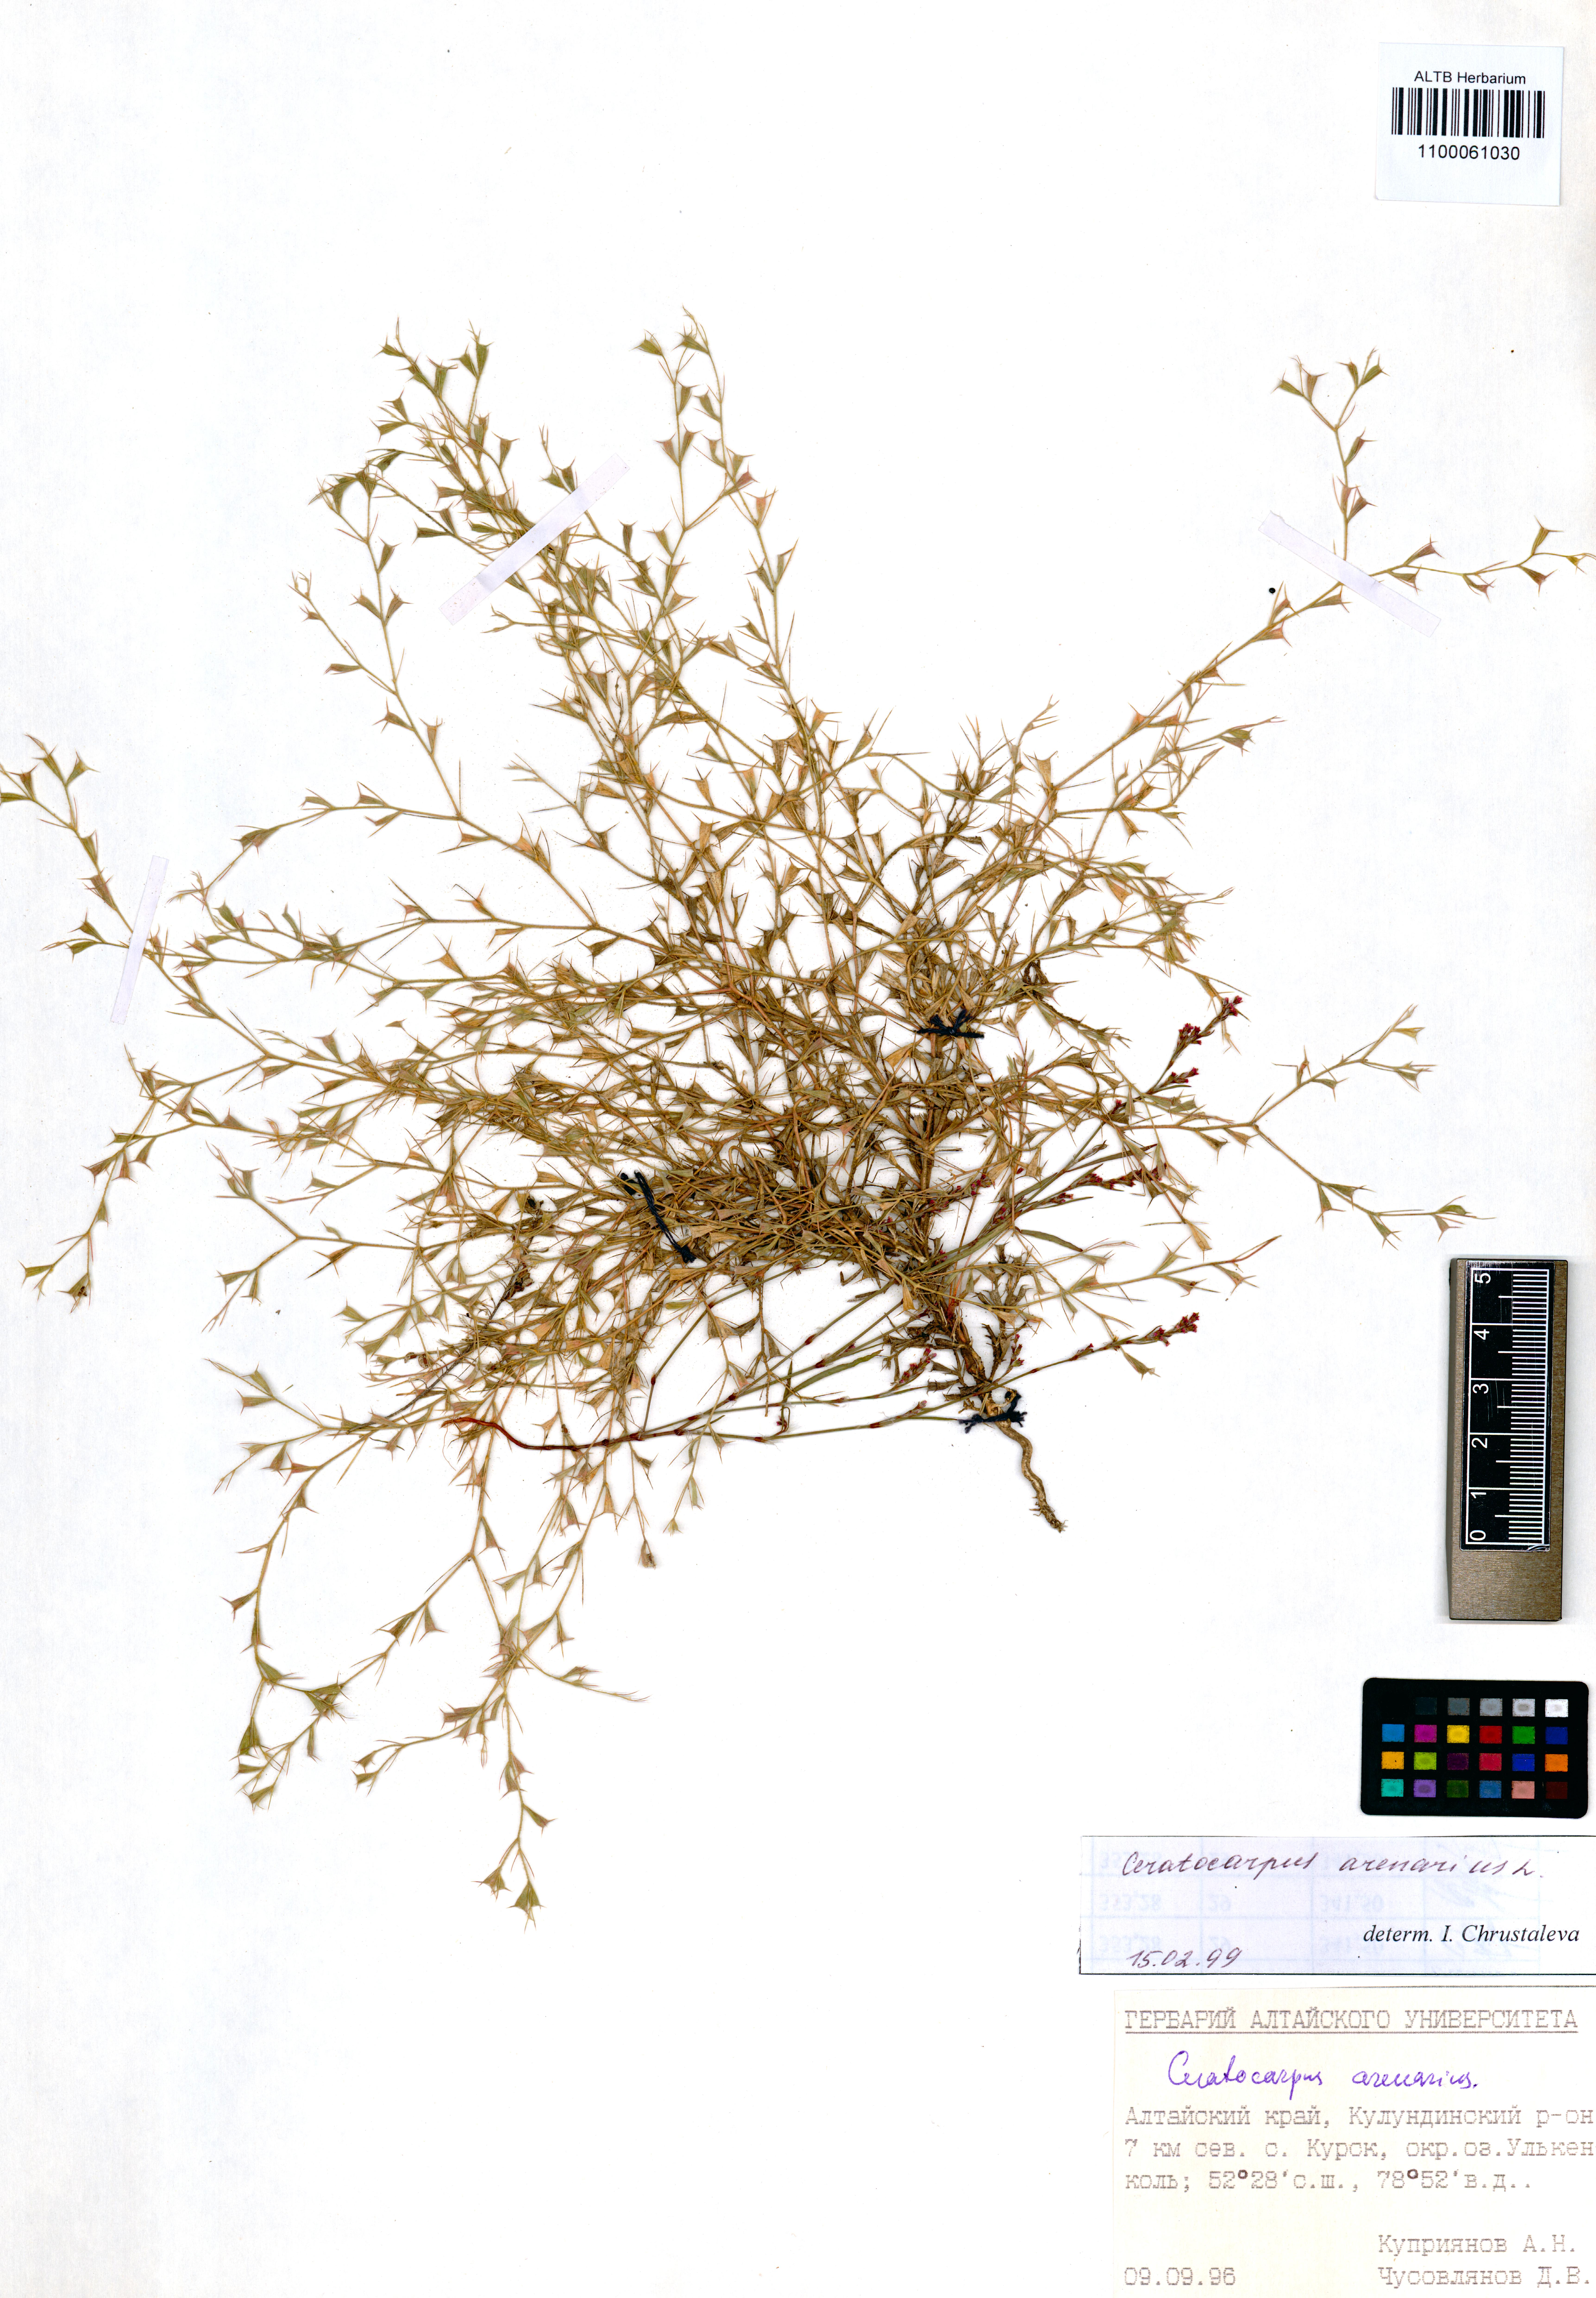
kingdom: Plantae
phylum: Tracheophyta
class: Magnoliopsida
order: Caryophyllales
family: Amaranthaceae
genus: Ceratocarpus
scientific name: Ceratocarpus arenarius
